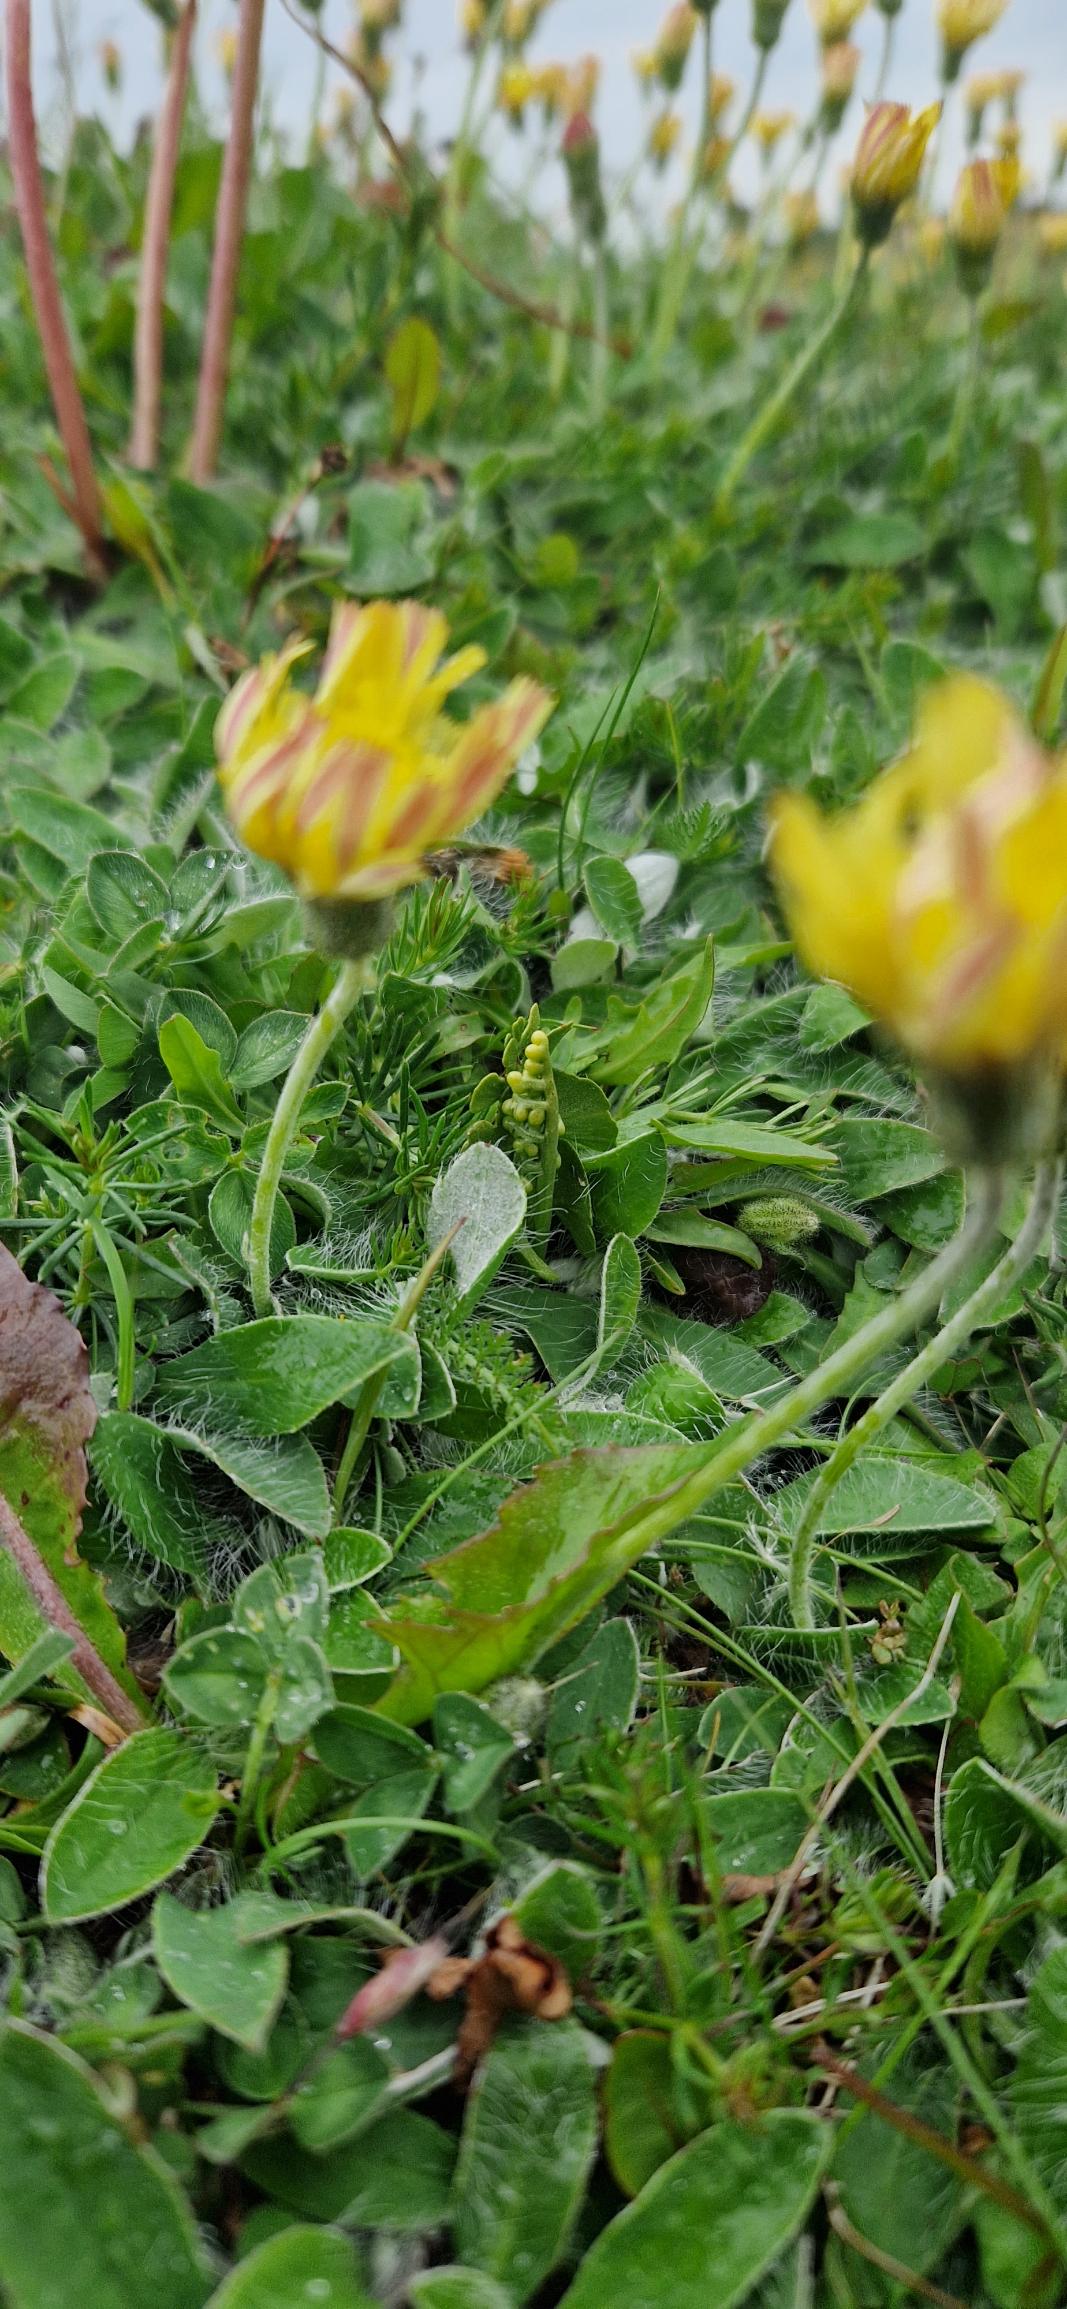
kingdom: Plantae
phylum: Tracheophyta
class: Polypodiopsida
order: Ophioglossales
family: Ophioglossaceae
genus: Botrychium
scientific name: Botrychium lunaria
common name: Almindelig månerude
